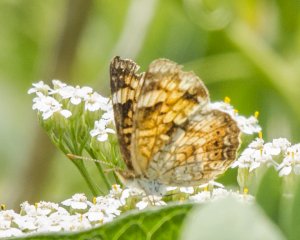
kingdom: Animalia
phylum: Arthropoda
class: Insecta
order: Lepidoptera
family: Nymphalidae
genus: Phyciodes
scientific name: Phyciodes tharos
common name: Northern Crescent
